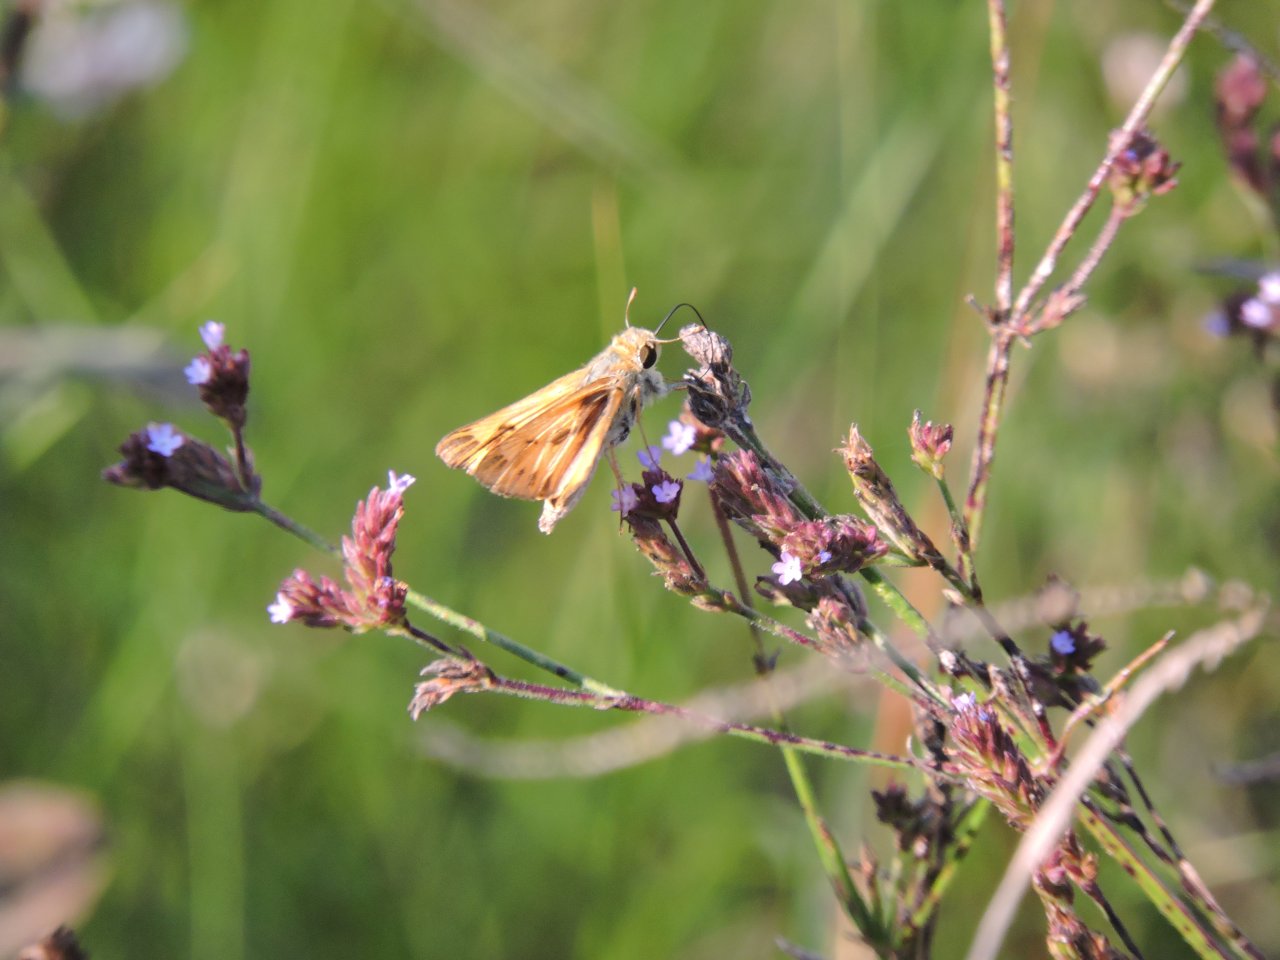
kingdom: Animalia
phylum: Arthropoda
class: Insecta
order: Lepidoptera
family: Hesperiidae
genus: Hylephila
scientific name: Hylephila phyleus
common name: Fiery Skipper
